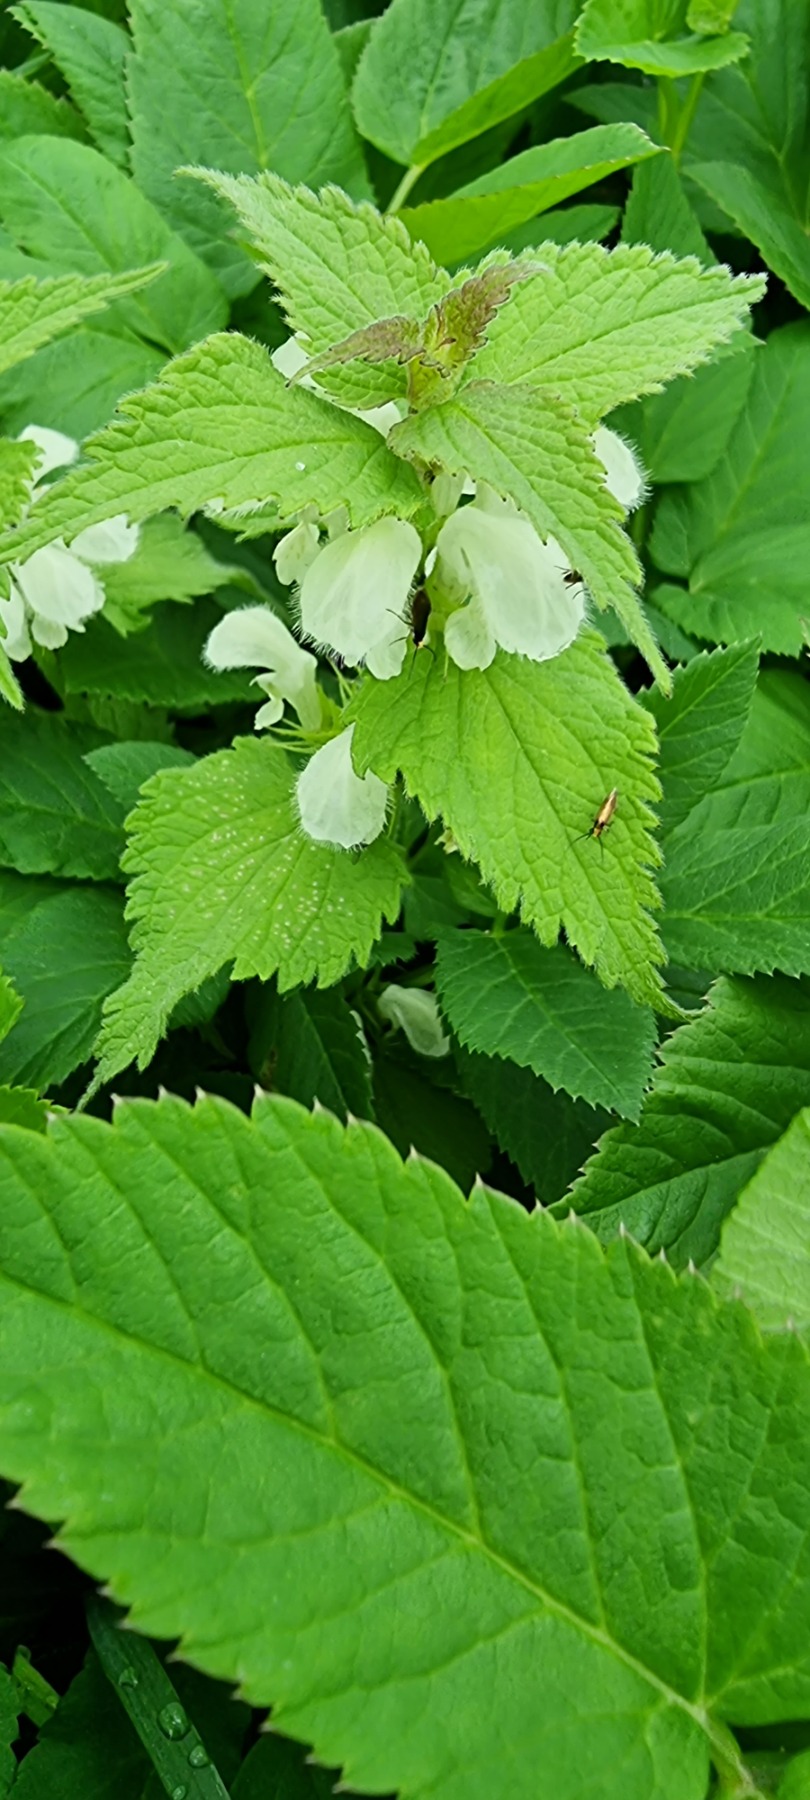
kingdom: Plantae
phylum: Tracheophyta
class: Magnoliopsida
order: Lamiales
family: Lamiaceae
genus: Lamium
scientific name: Lamium album
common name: Døvnælde
